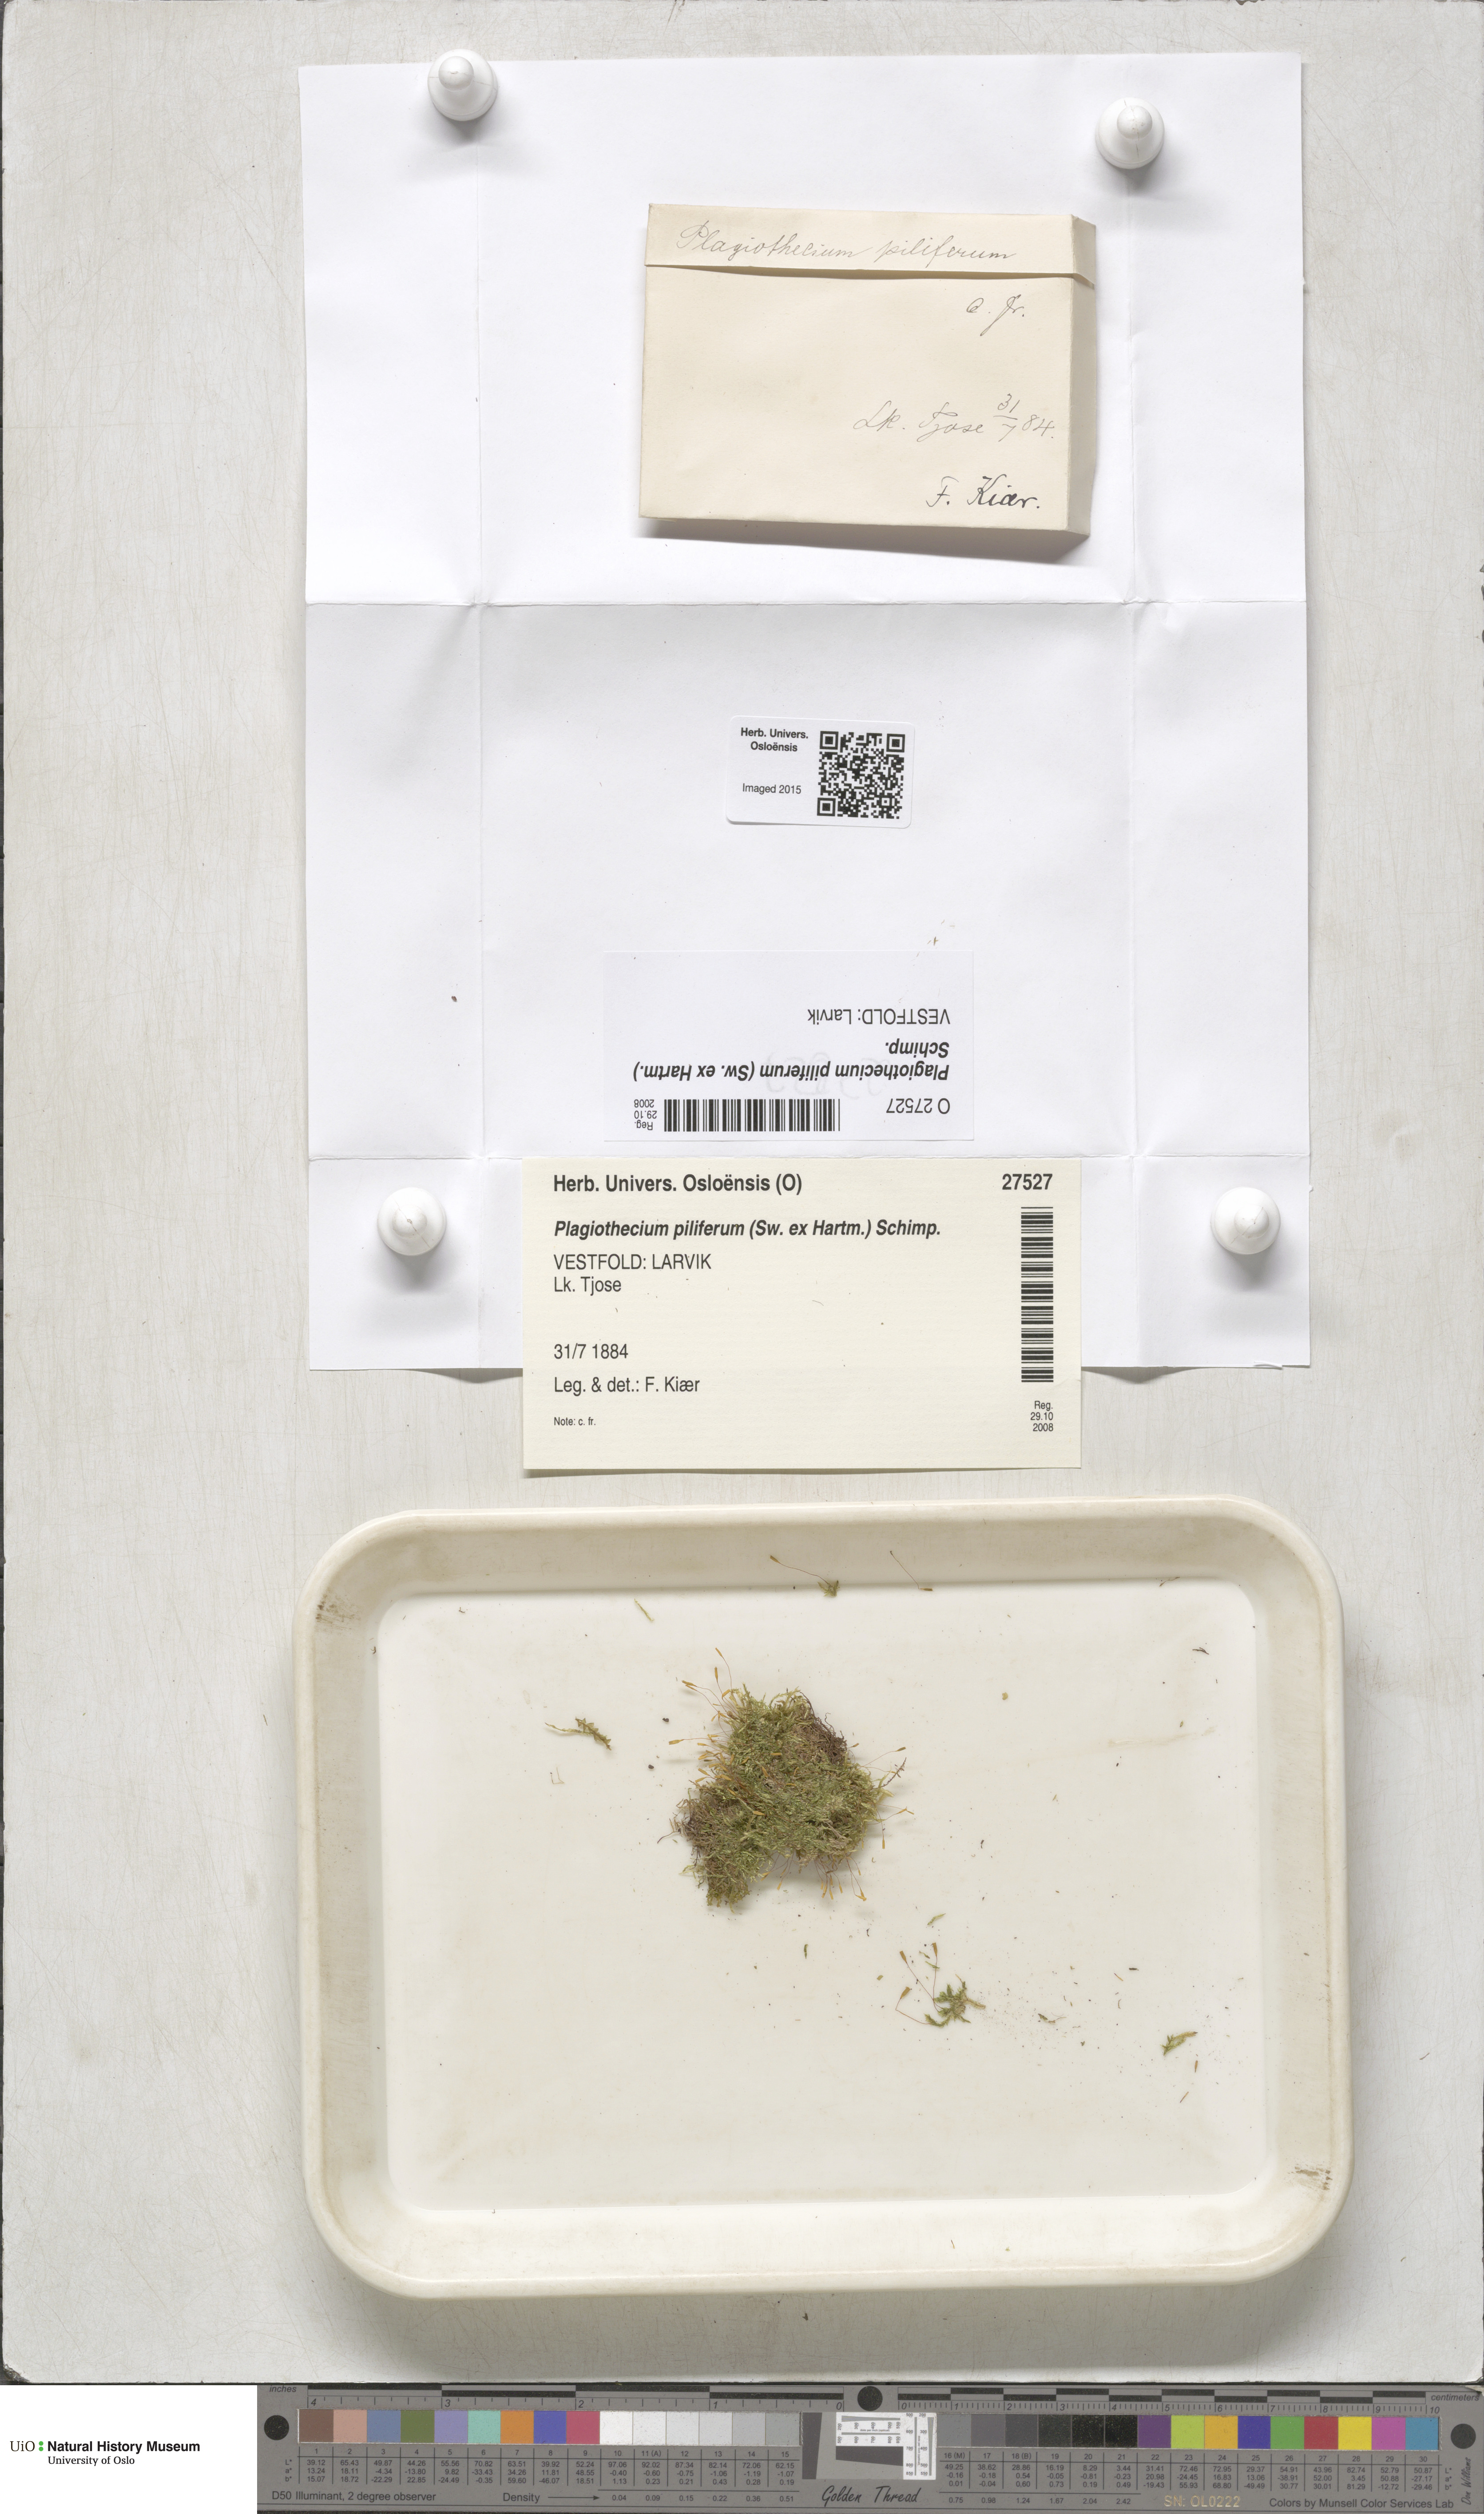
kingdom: Plantae
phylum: Bryophyta
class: Bryopsida
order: Hypnales
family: Plagiotheciaceae
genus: Rectithecium
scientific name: Rectithecium piliferum
